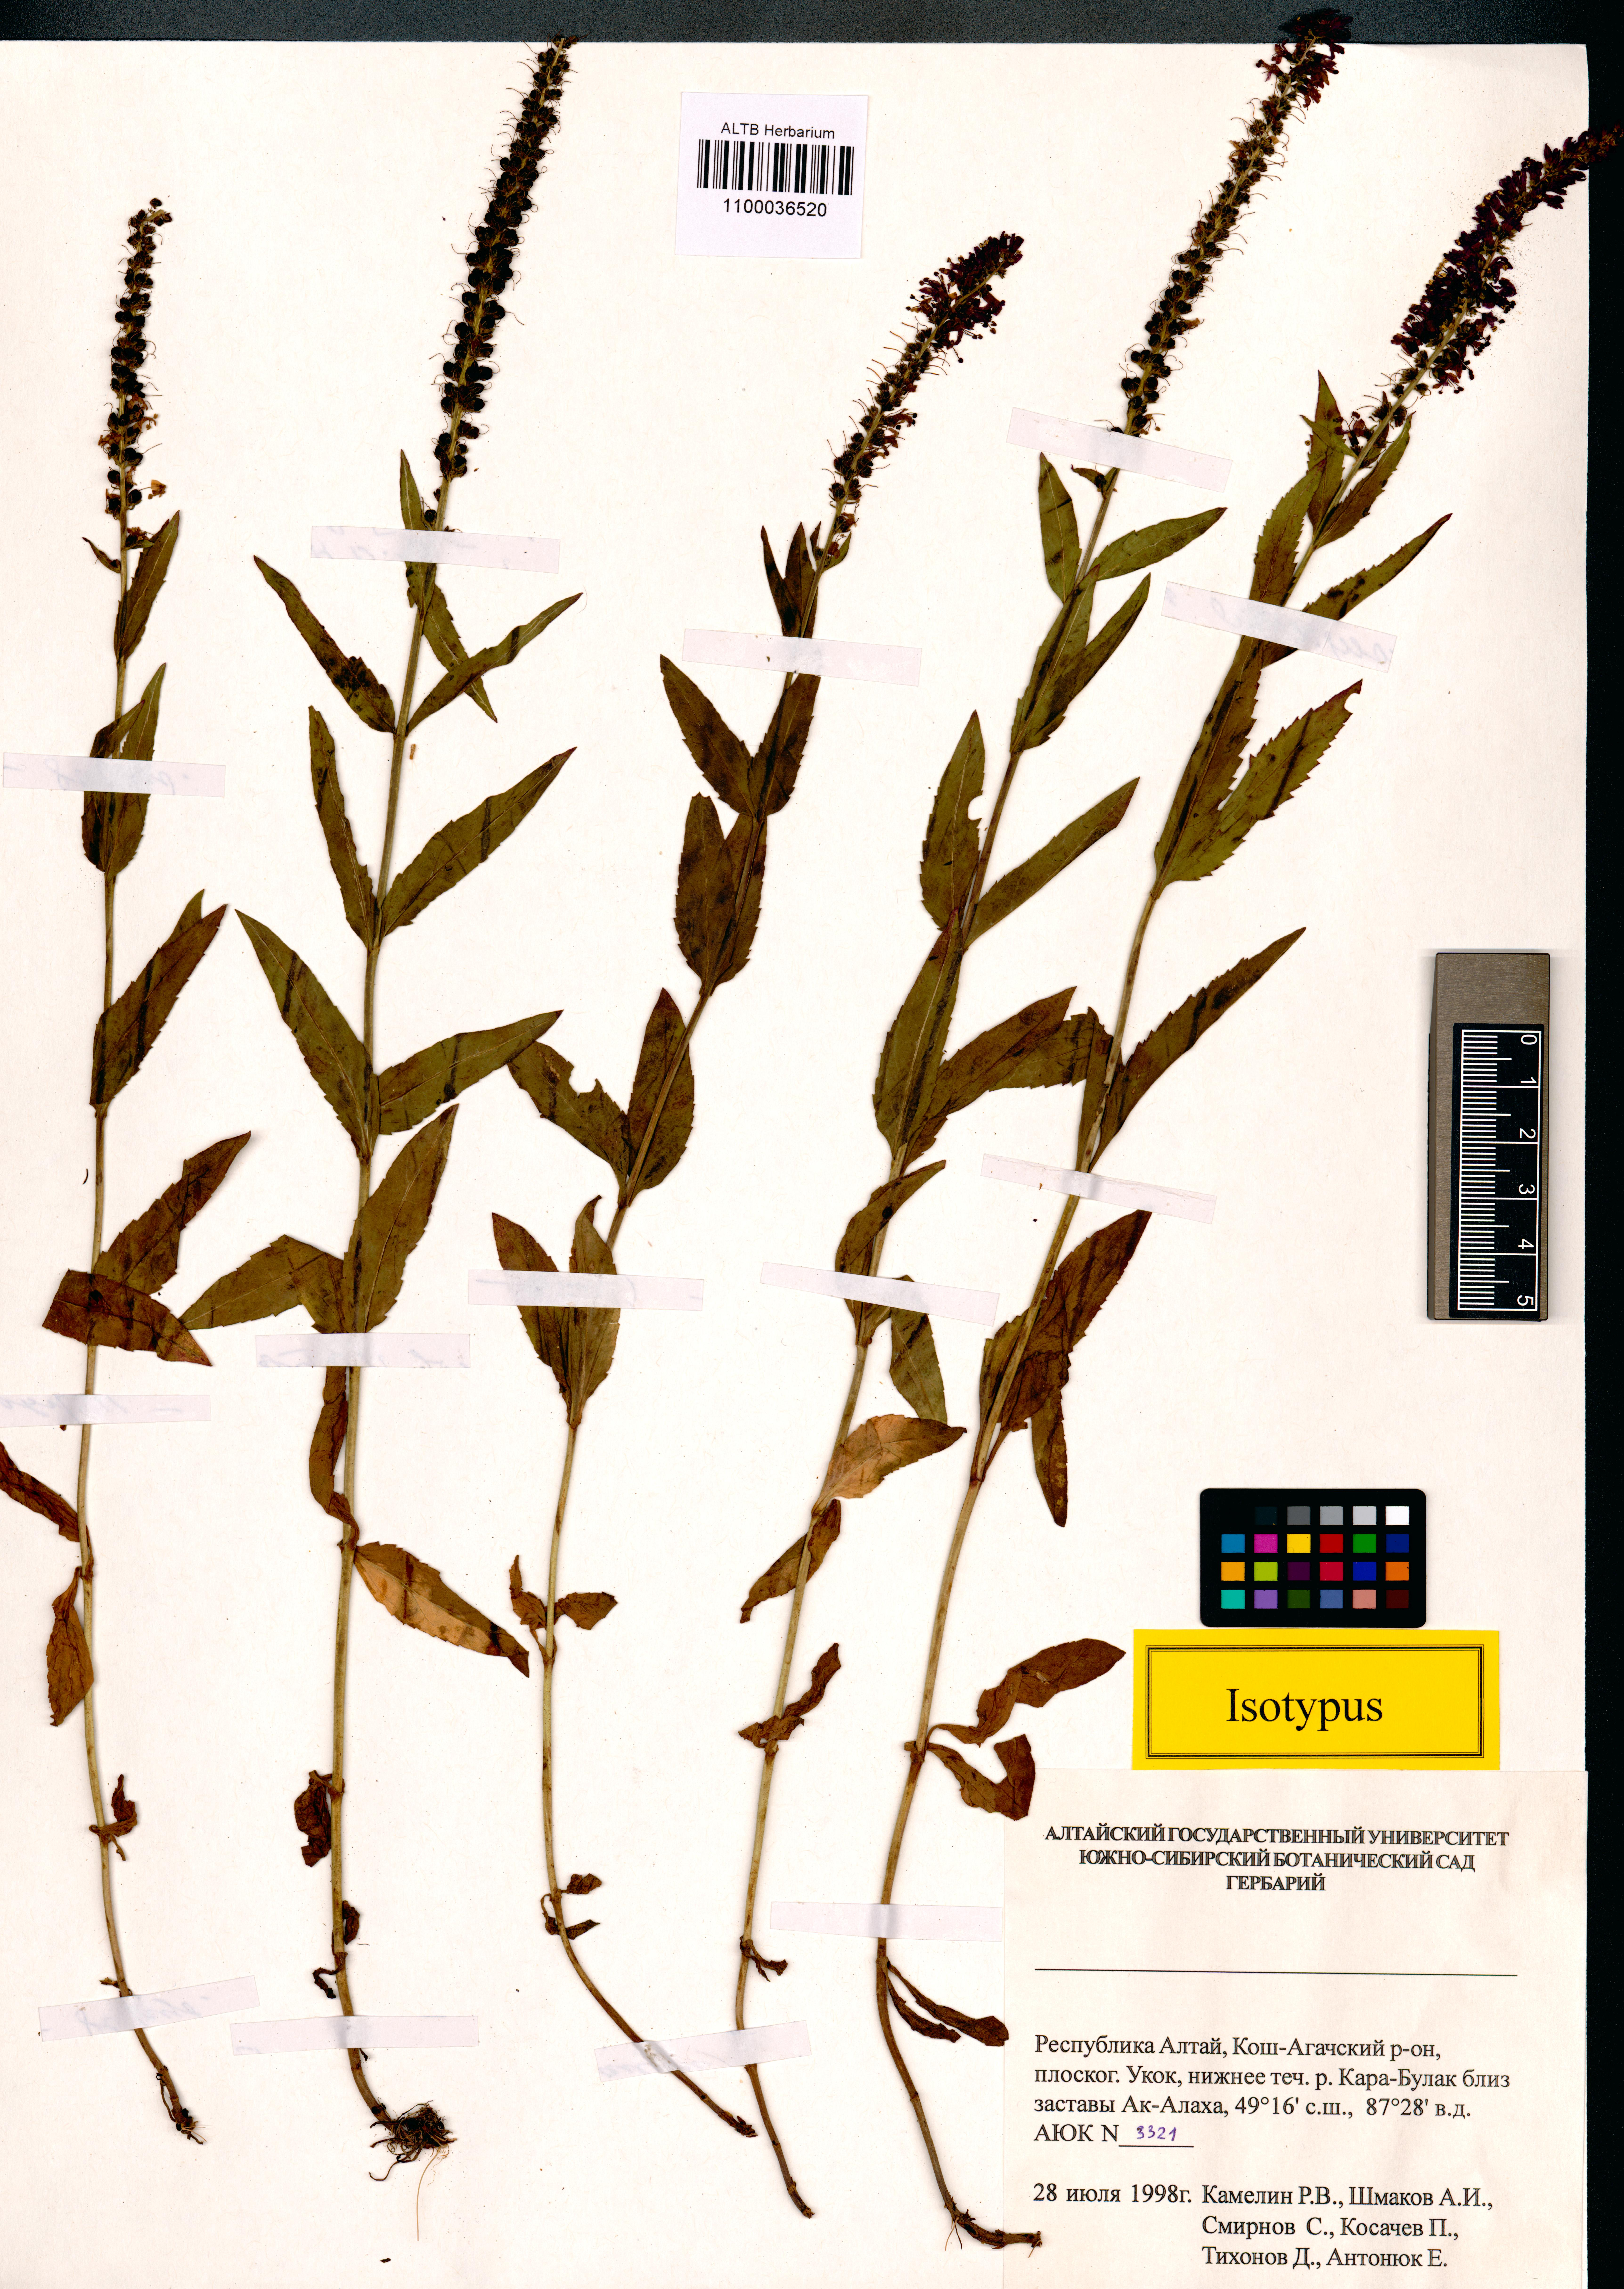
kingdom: Plantae
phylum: Tracheophyta
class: Magnoliopsida
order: Lamiales
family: Plantaginaceae
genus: Veronica
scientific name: Veronica schmakovii
